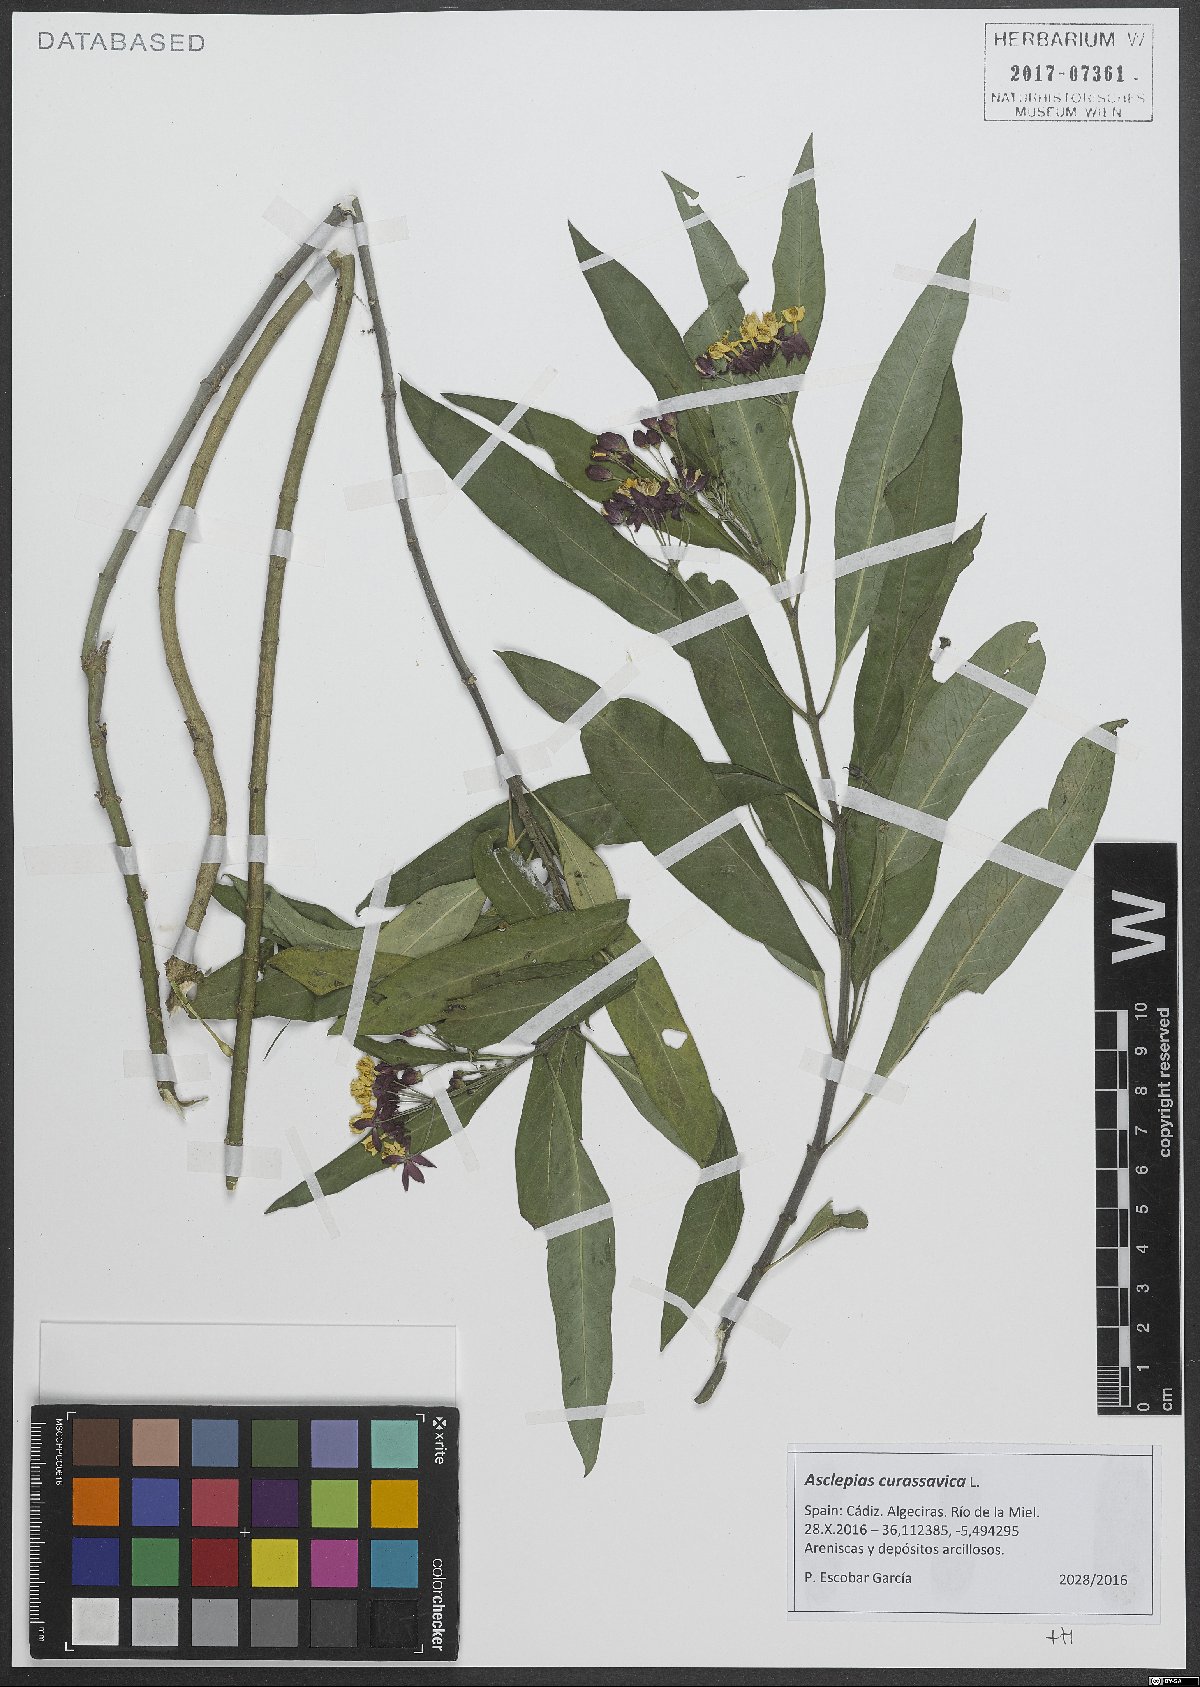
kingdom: Plantae
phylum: Tracheophyta
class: Magnoliopsida
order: Gentianales
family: Apocynaceae
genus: Asclepias
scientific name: Asclepias curassavica
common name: Bloodflower
